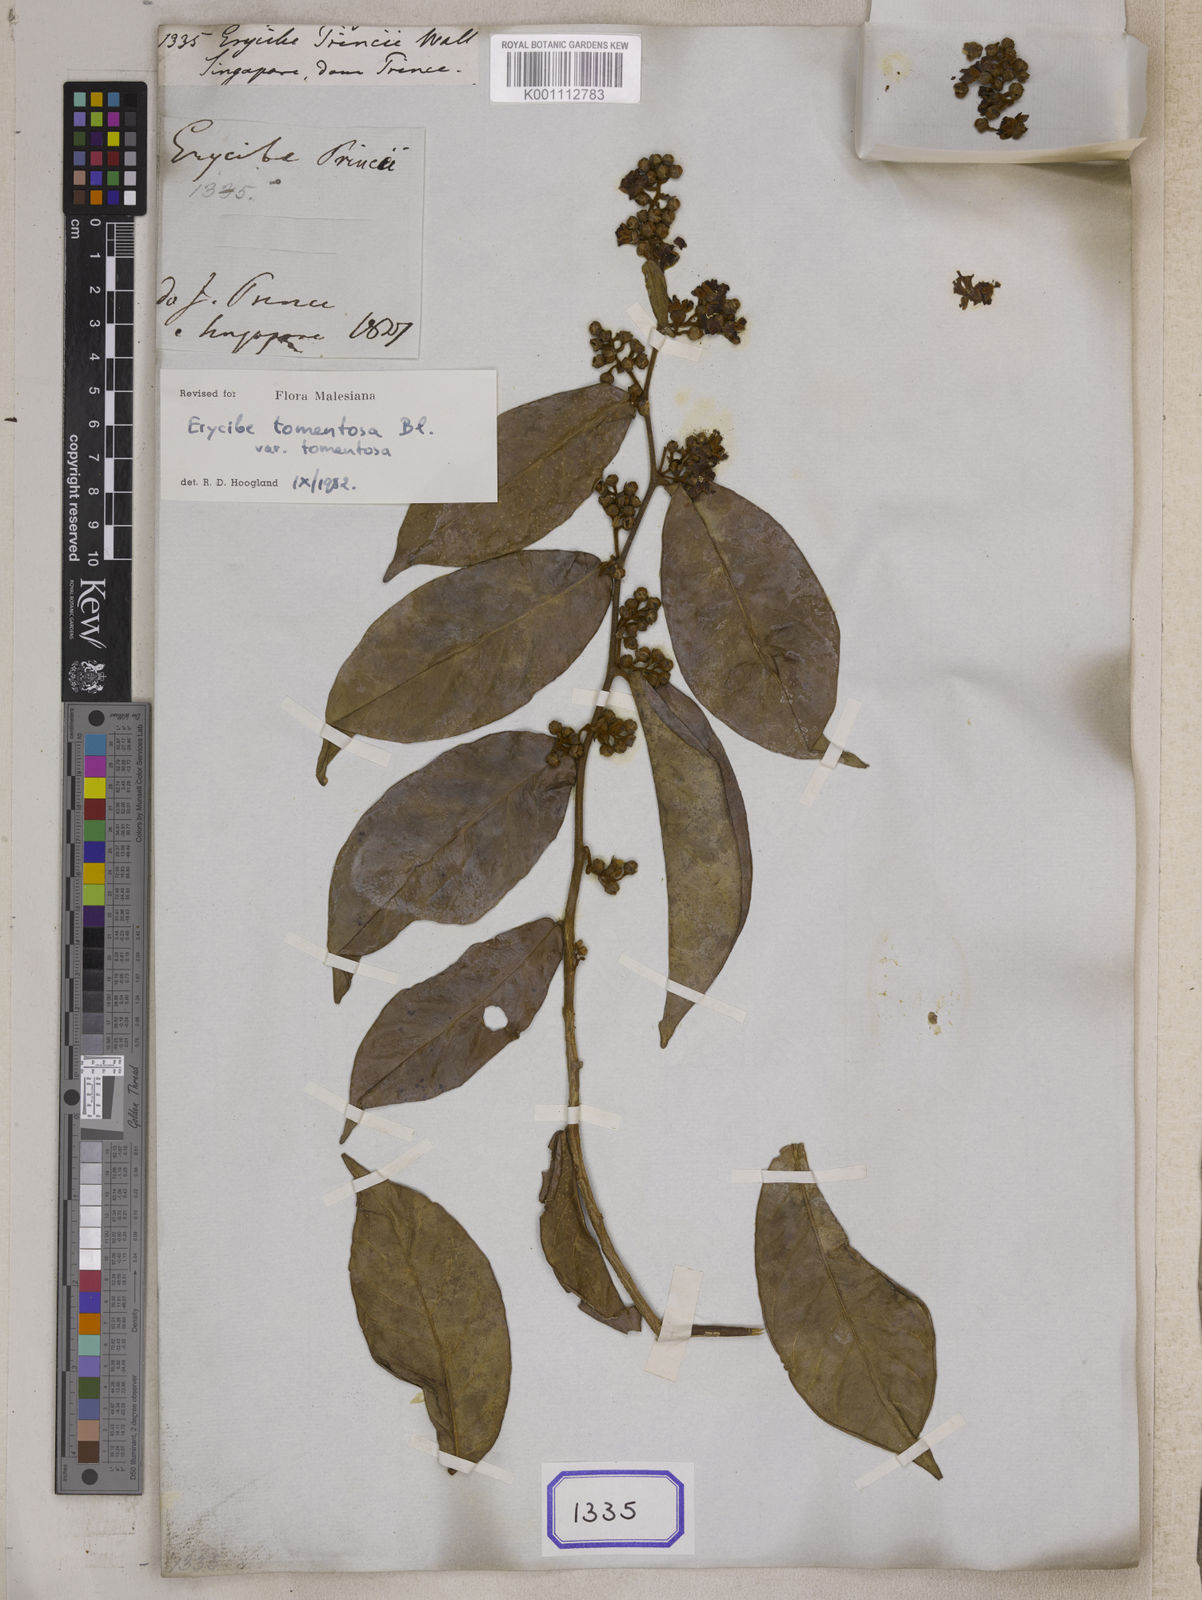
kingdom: Plantae
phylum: Tracheophyta
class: Magnoliopsida
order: Solanales
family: Convolvulaceae
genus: Erycibe
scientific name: Erycibe
